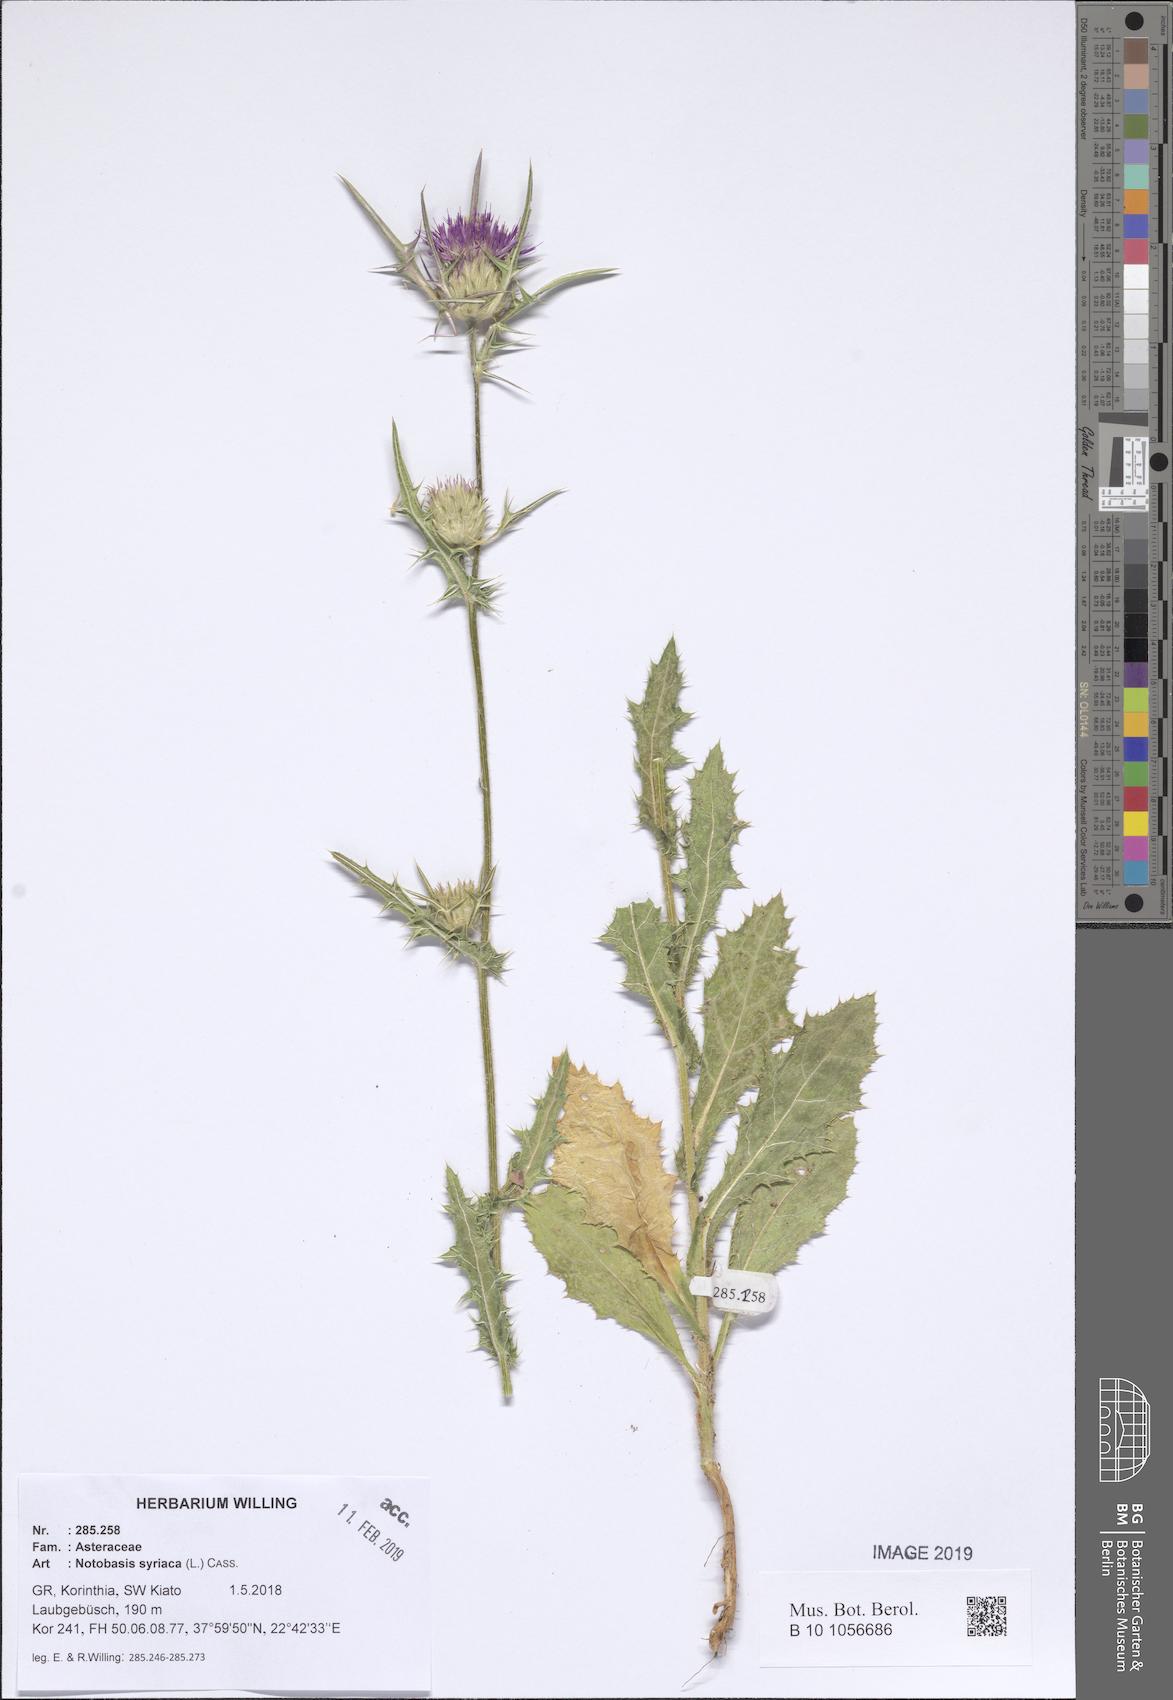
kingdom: Plantae
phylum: Tracheophyta
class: Magnoliopsida
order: Asterales
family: Asteraceae
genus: Notobasis
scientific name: Notobasis syriaca
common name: Syrian thistle
